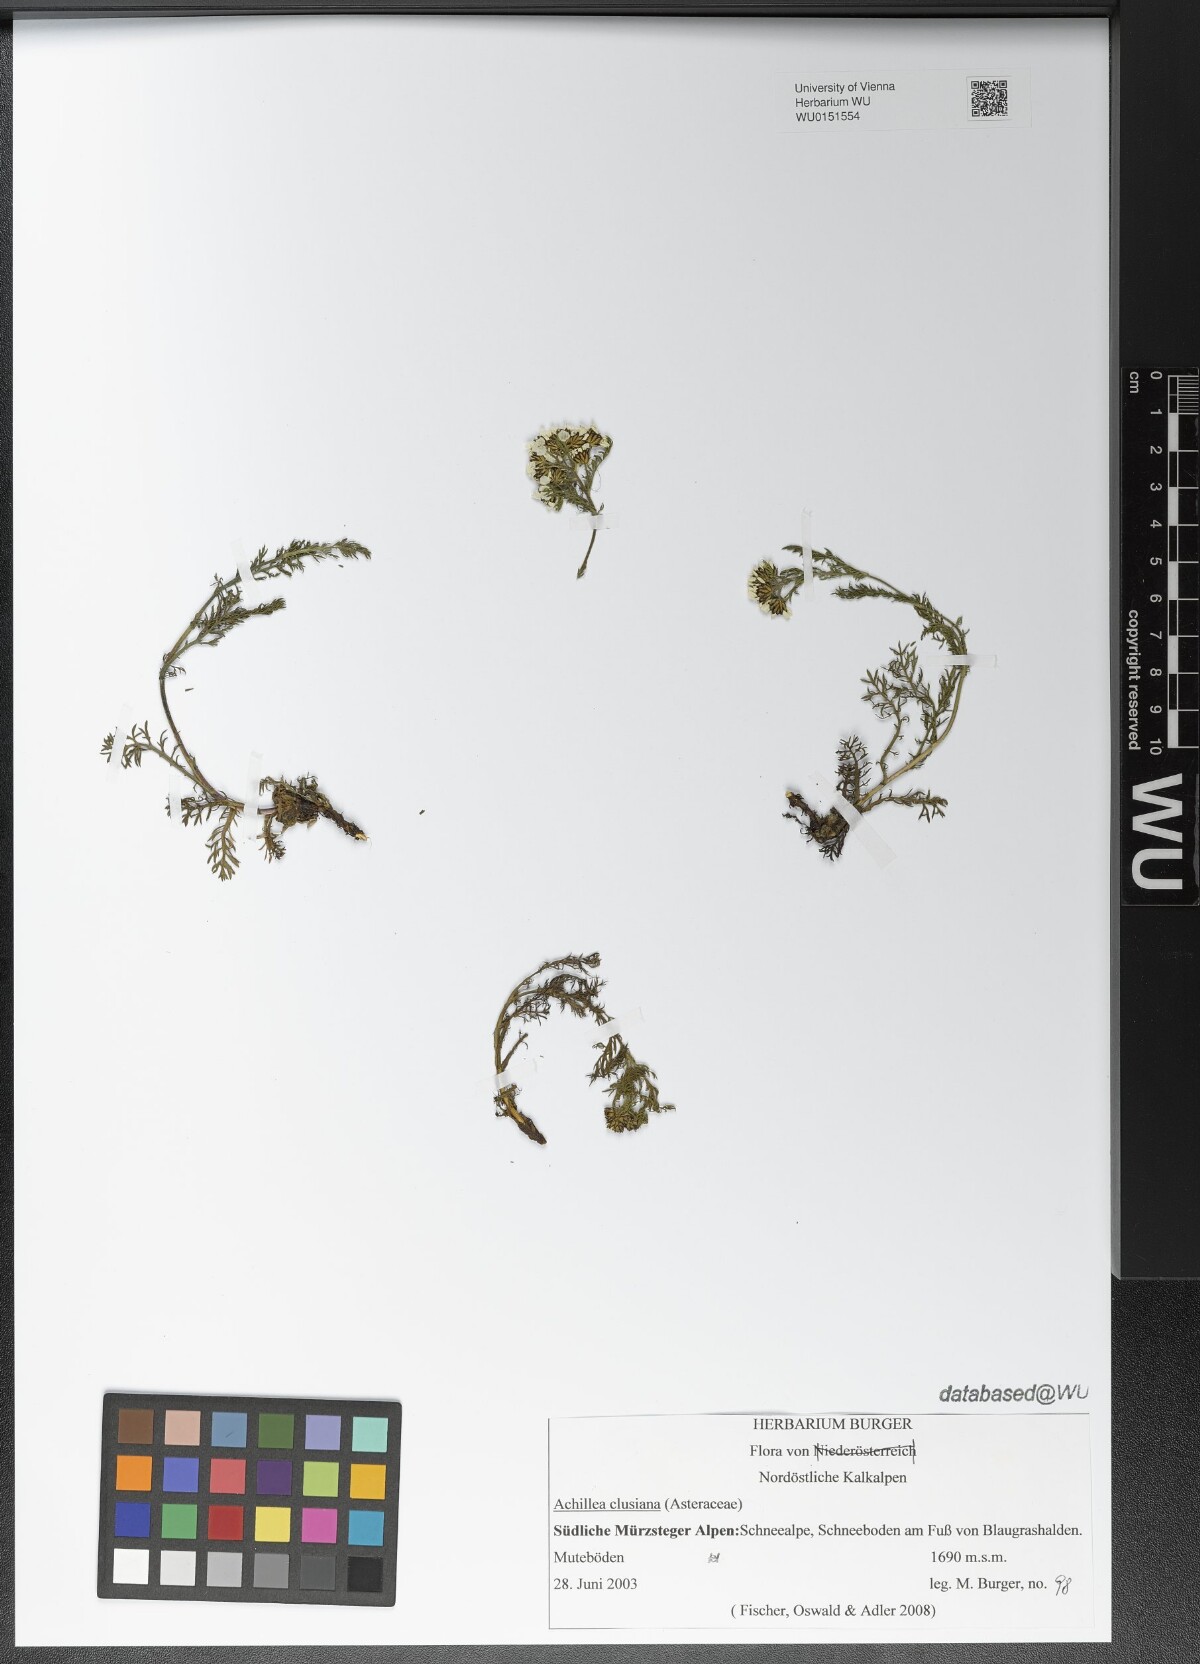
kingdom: Plantae
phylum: Tracheophyta
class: Magnoliopsida
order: Asterales
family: Asteraceae
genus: Achillea
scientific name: Achillea clusiana
